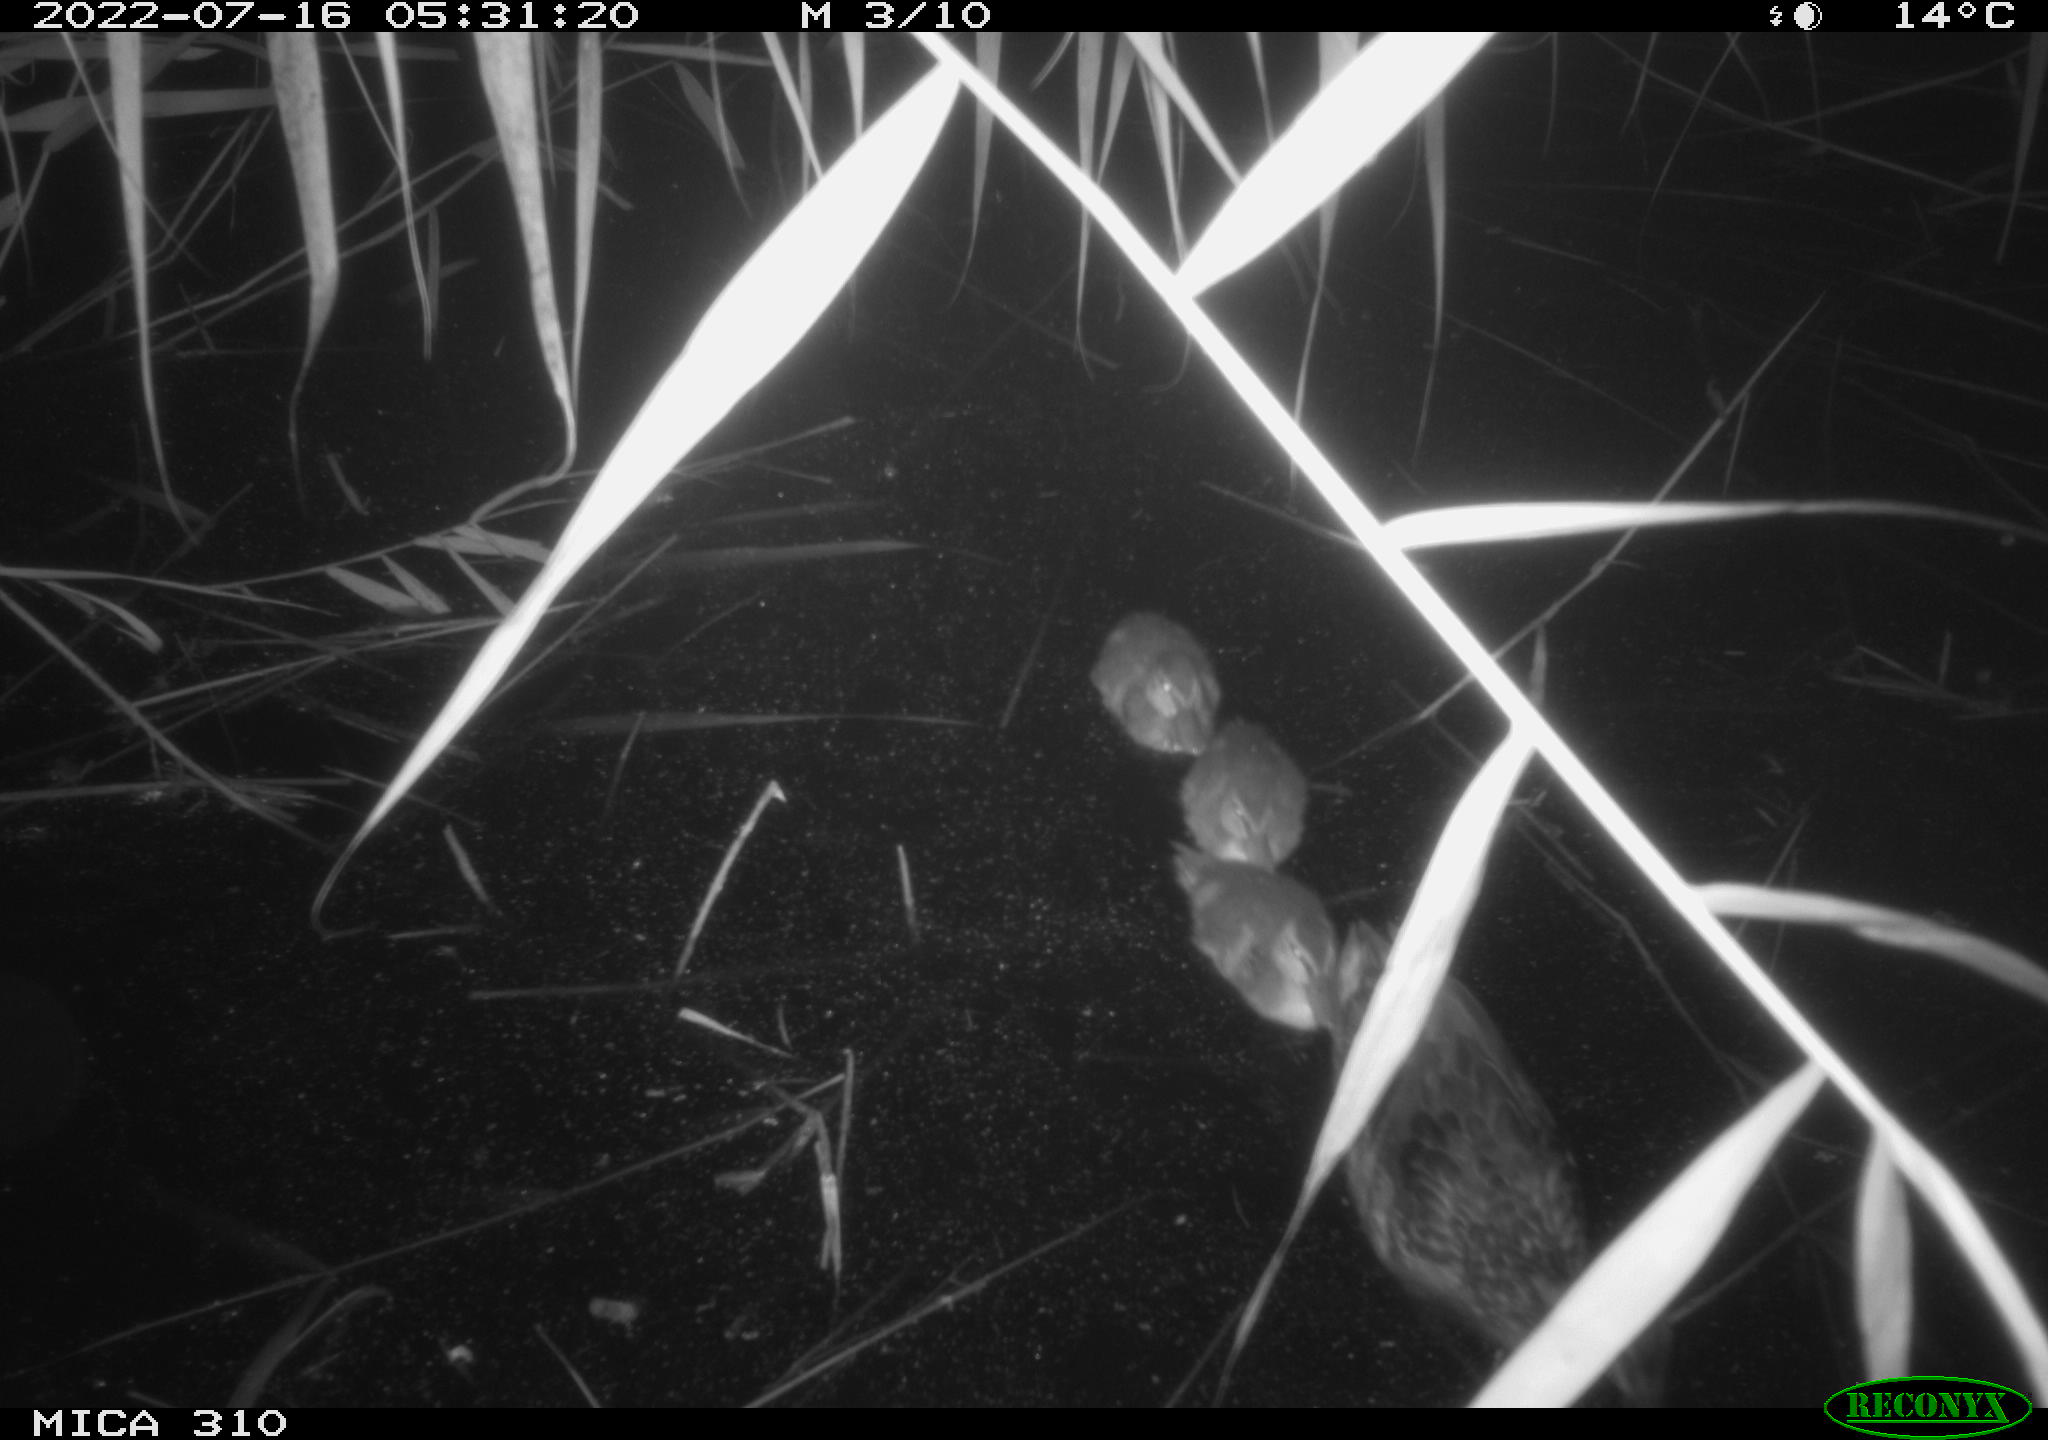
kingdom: Animalia
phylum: Chordata
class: Aves
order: Anseriformes
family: Anatidae
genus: Anas
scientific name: Anas platyrhynchos
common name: Mallard
